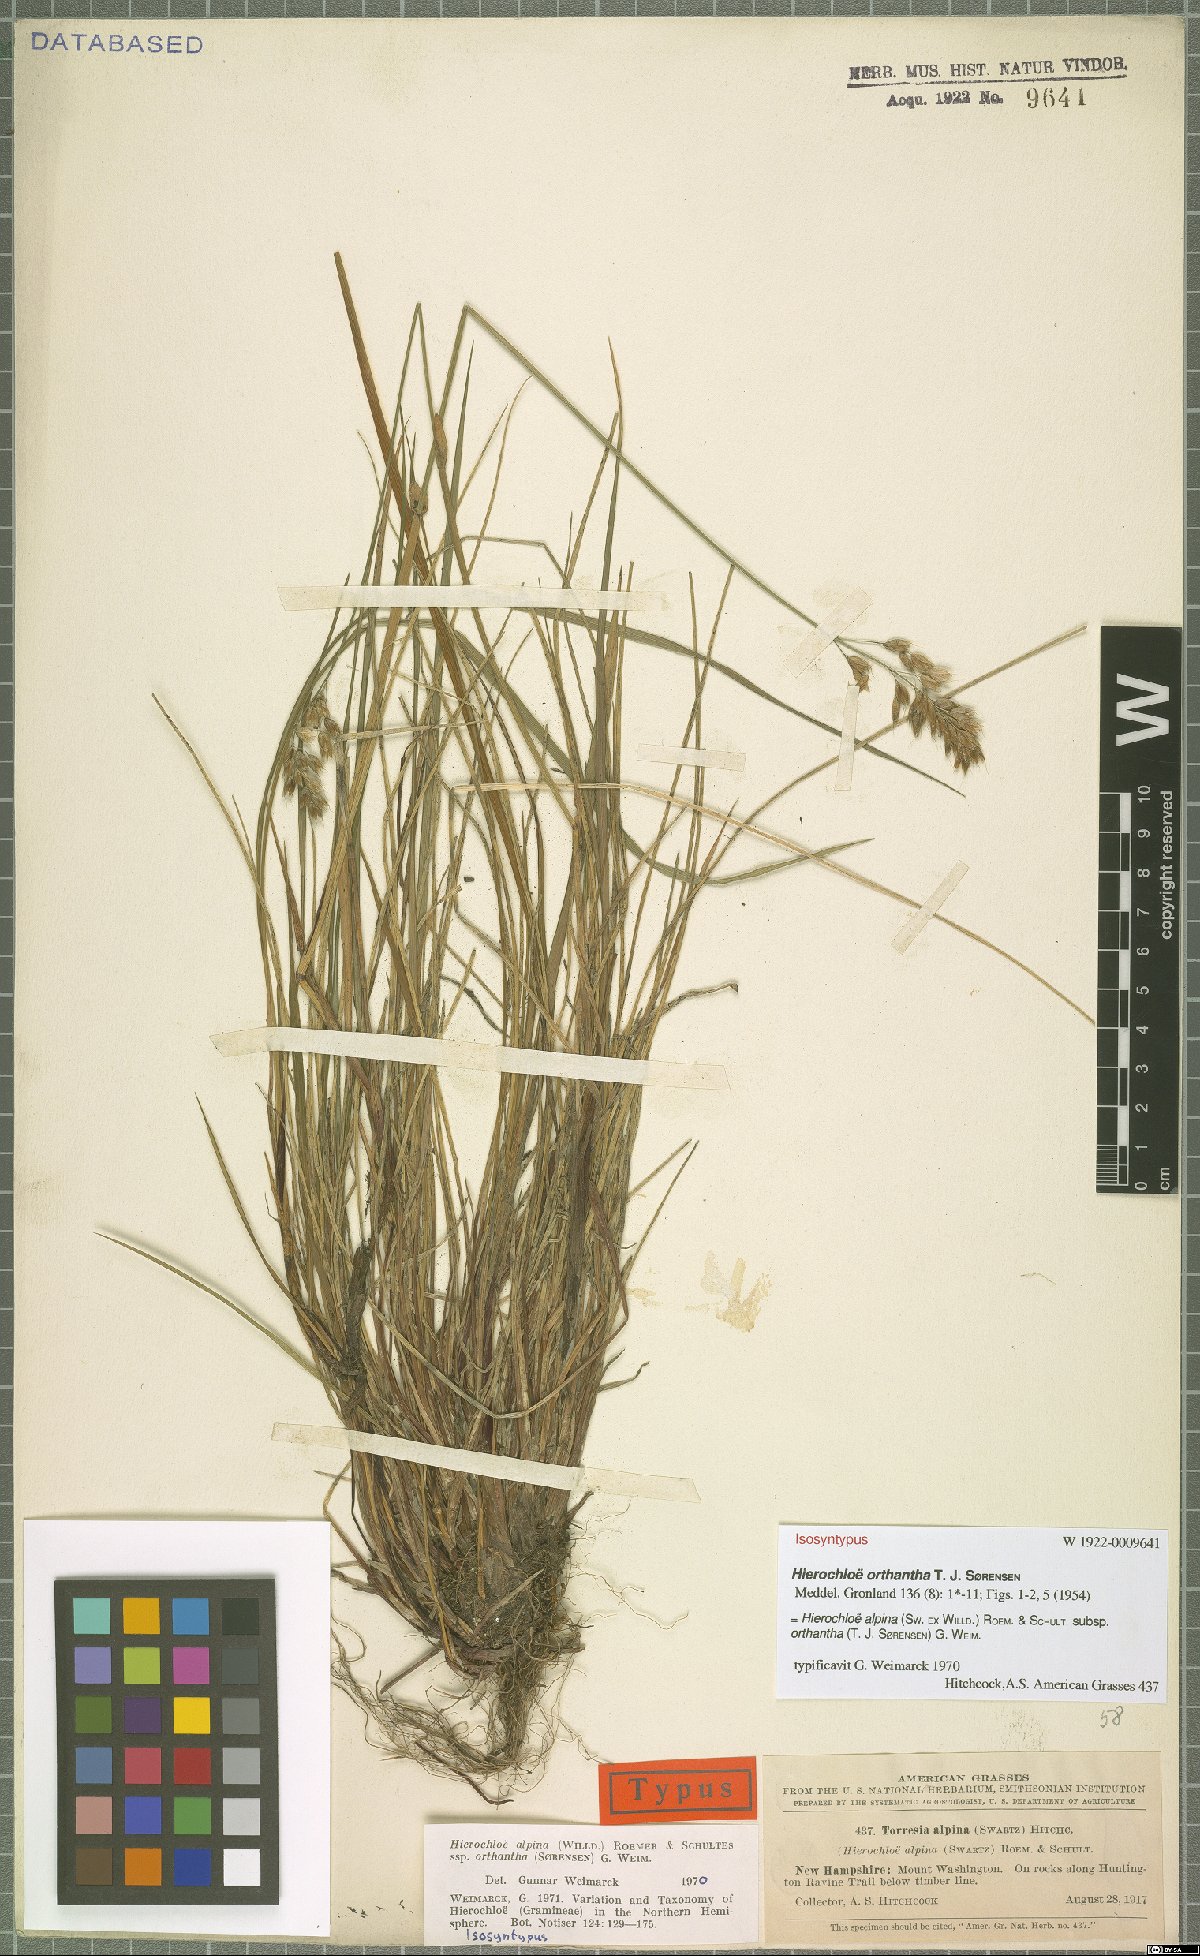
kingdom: Plantae
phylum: Tracheophyta
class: Liliopsida
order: Poales
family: Poaceae
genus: Anthoxanthum
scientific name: Anthoxanthum monticola
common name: Alpine sweetgrass
